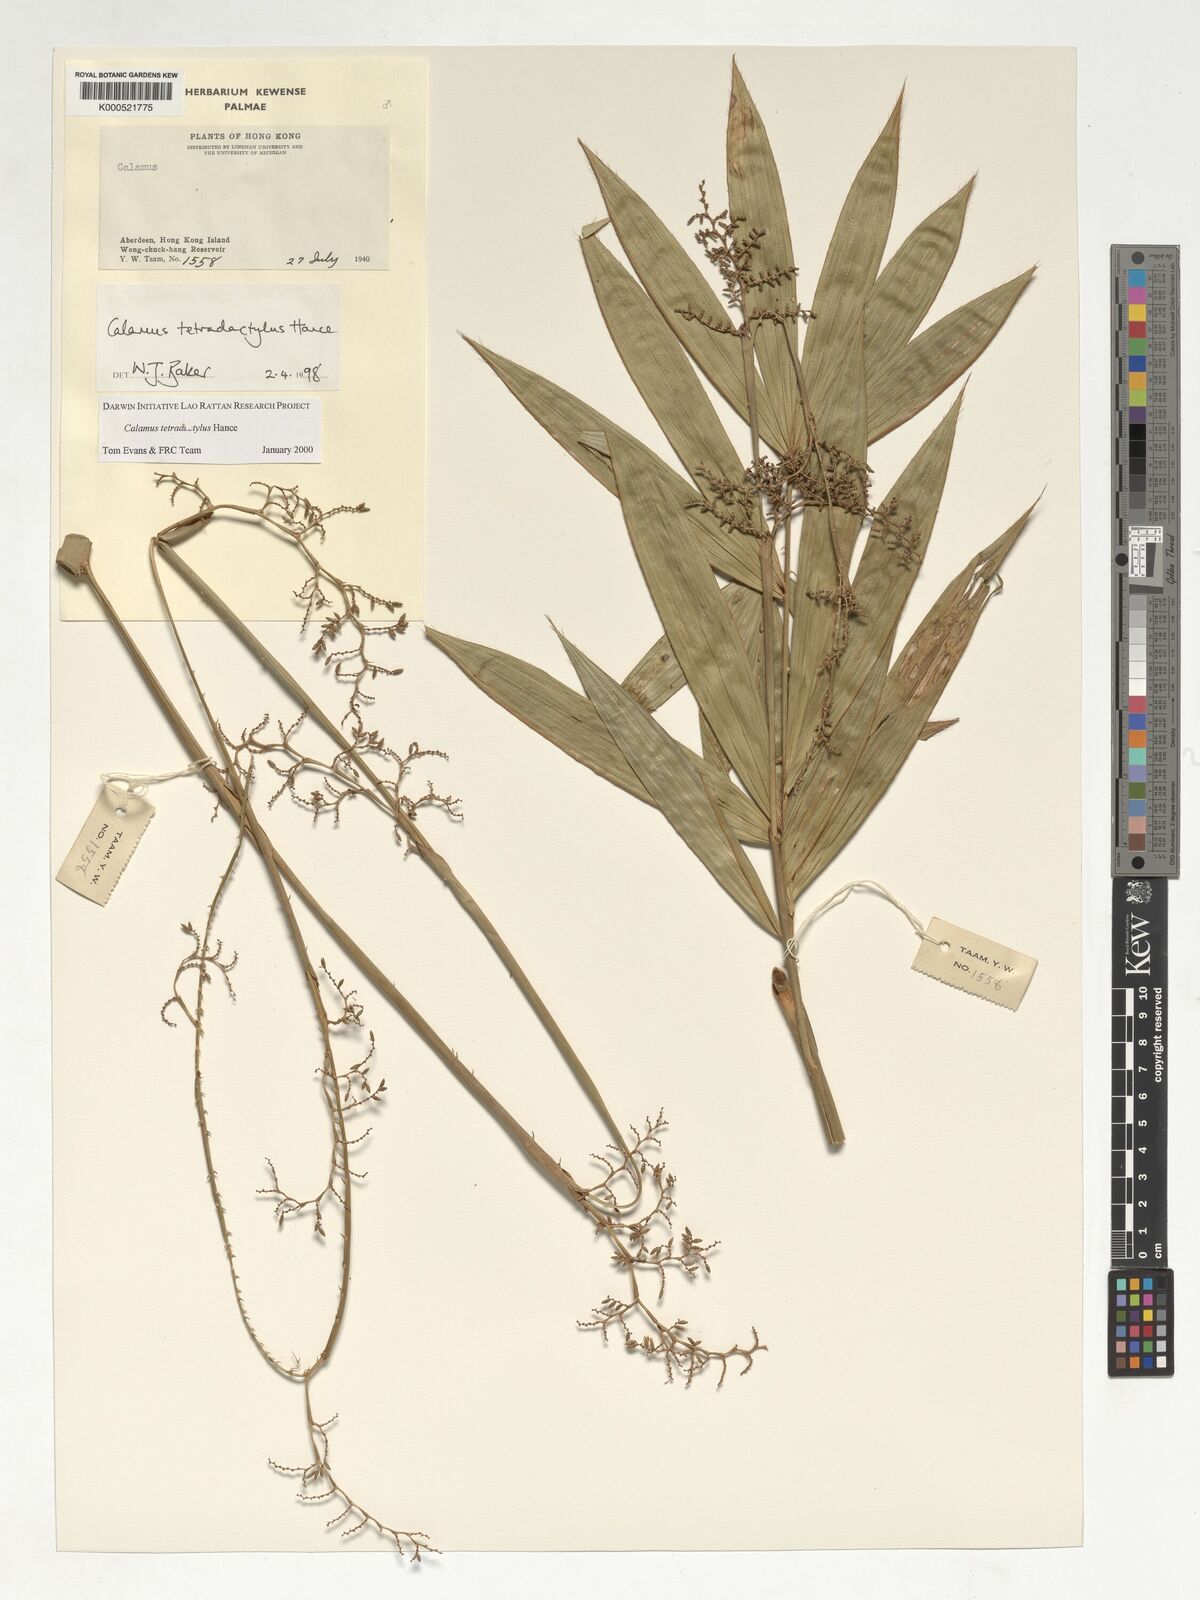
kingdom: Plantae
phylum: Tracheophyta
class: Liliopsida
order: Arecales
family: Arecaceae
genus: Calamus
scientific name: Calamus tetradactylus
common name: White rattan
